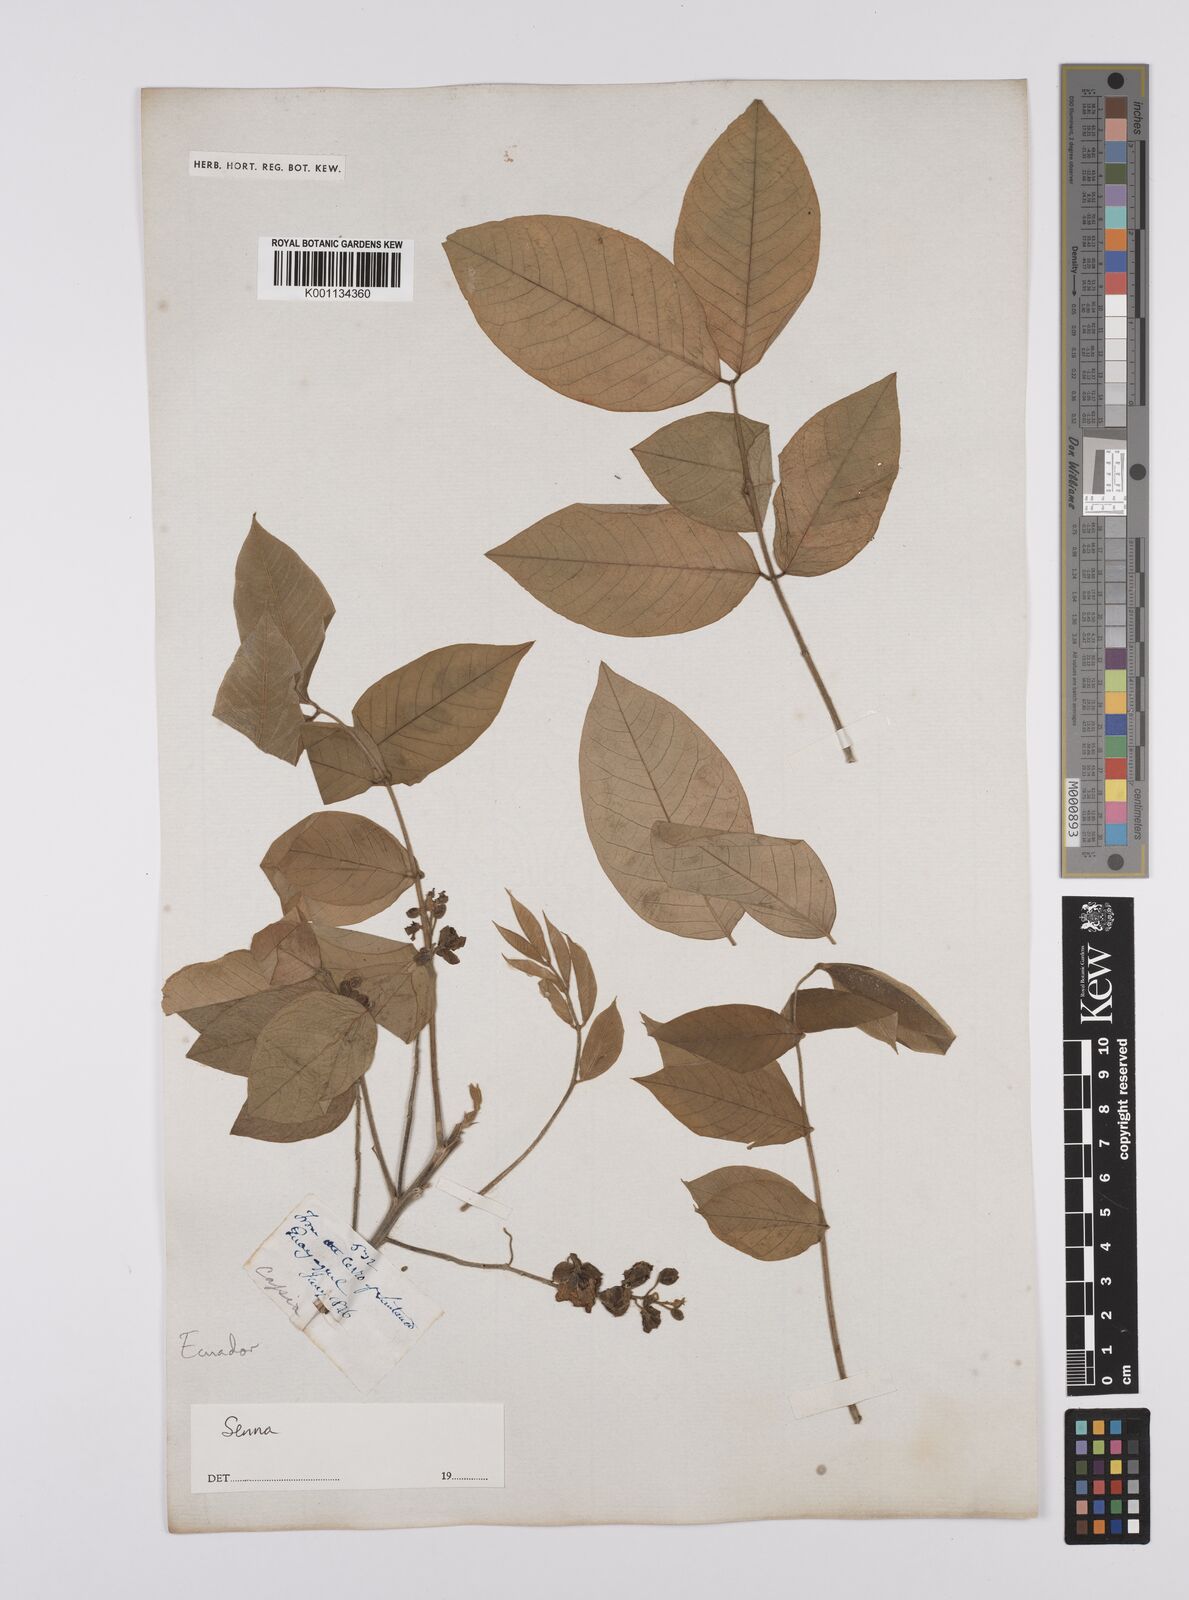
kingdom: Plantae
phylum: Tracheophyta
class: Magnoliopsida
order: Fabales
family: Fabaceae
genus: Senna
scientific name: Senna
